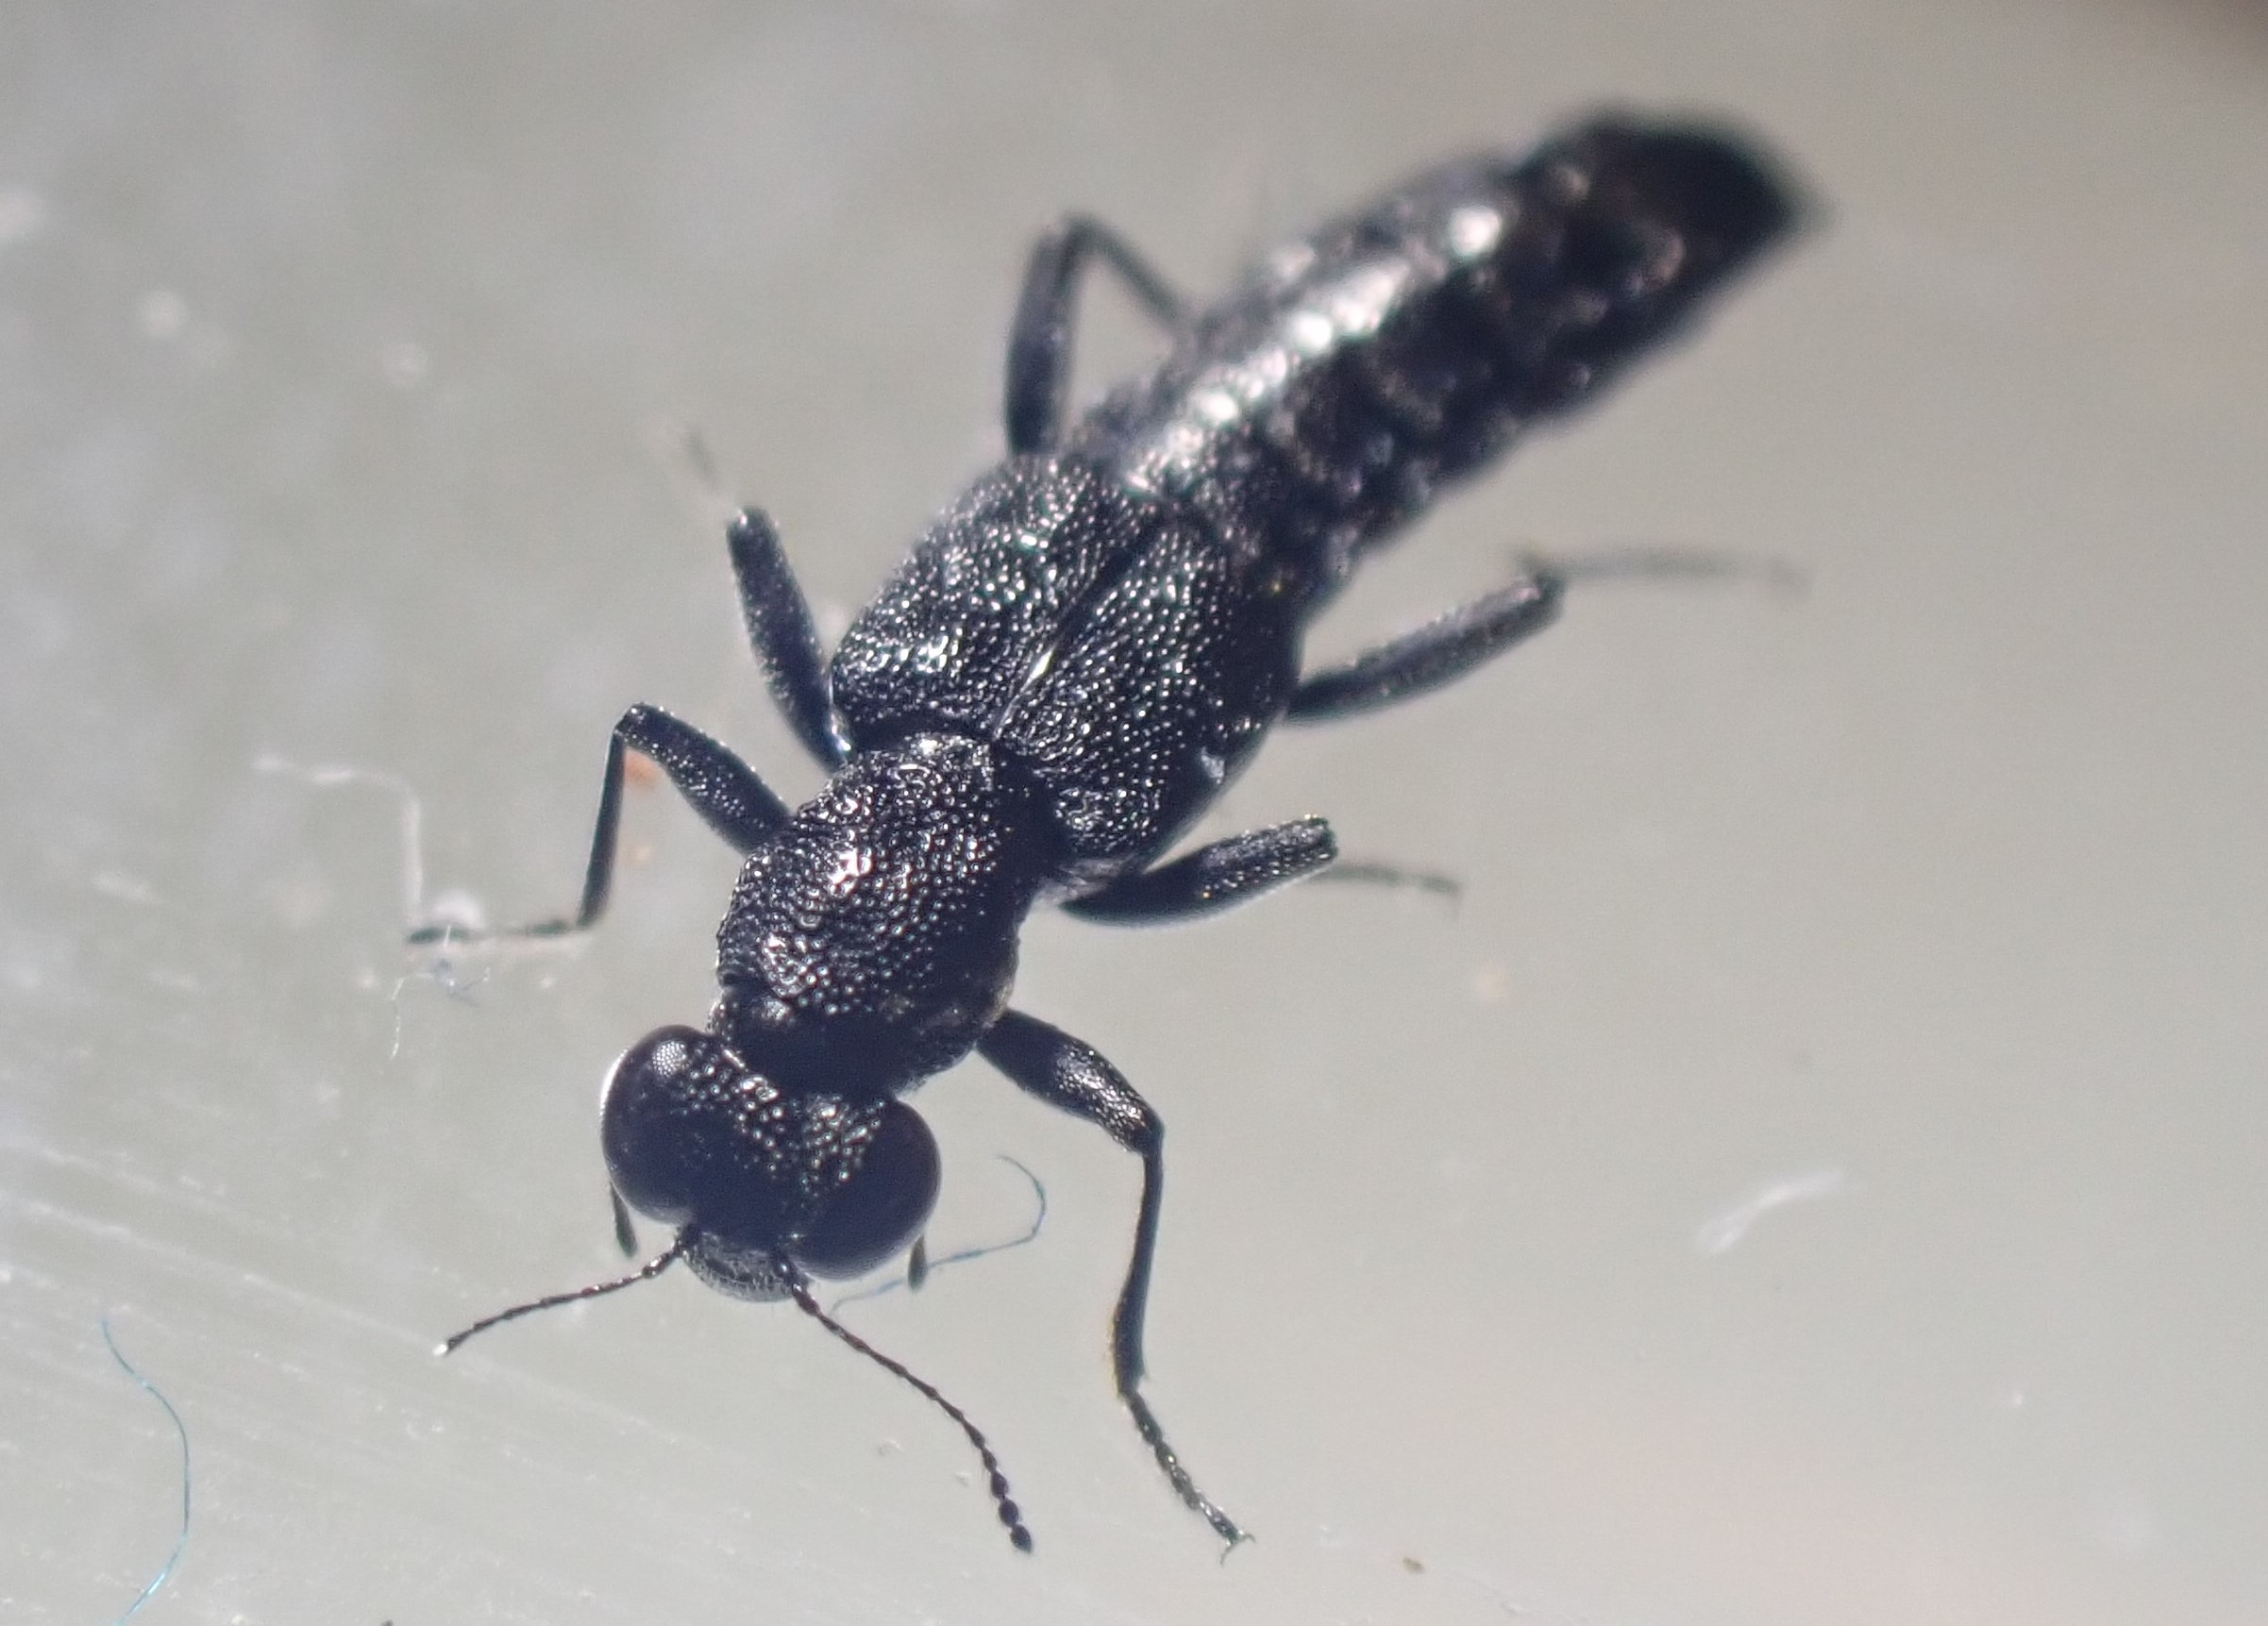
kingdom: Animalia
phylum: Arthropoda
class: Insecta
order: Coleoptera
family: Staphylinidae
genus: Stenus
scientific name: Stenus juno
